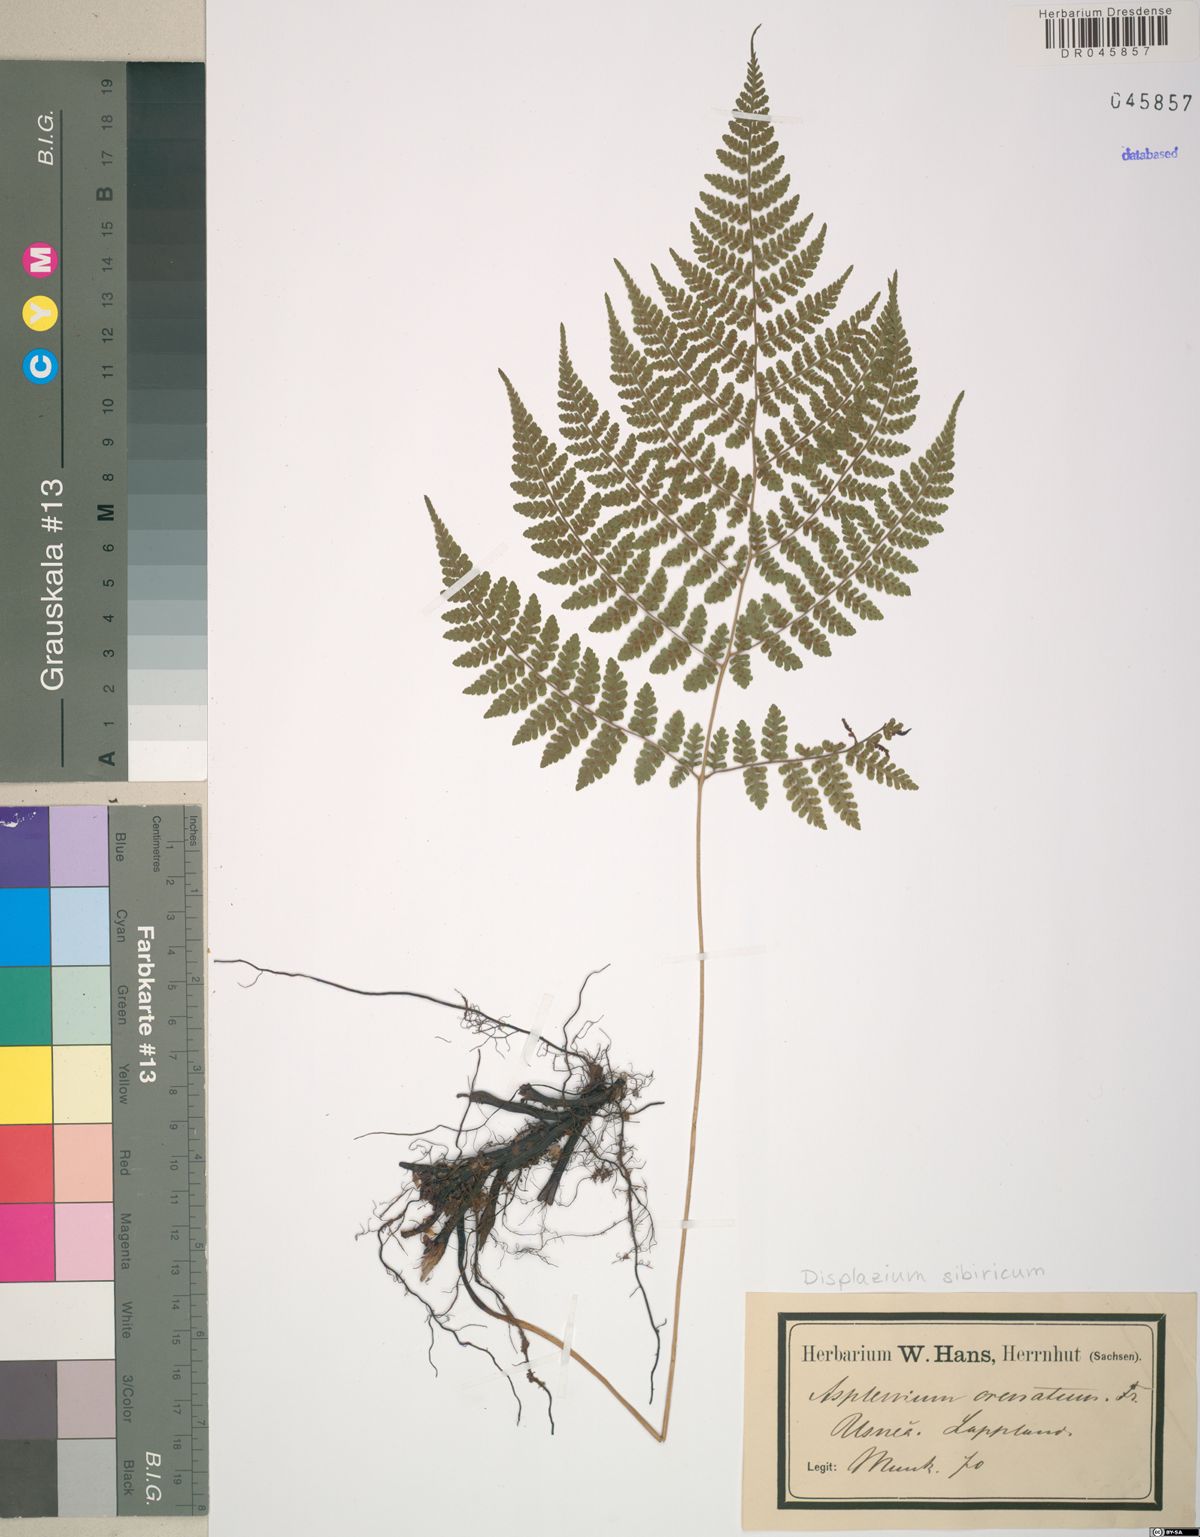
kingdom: Plantae
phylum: Tracheophyta
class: Polypodiopsida
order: Polypodiales
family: Athyriaceae
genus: Diplazium
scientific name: Diplazium sibiricum
